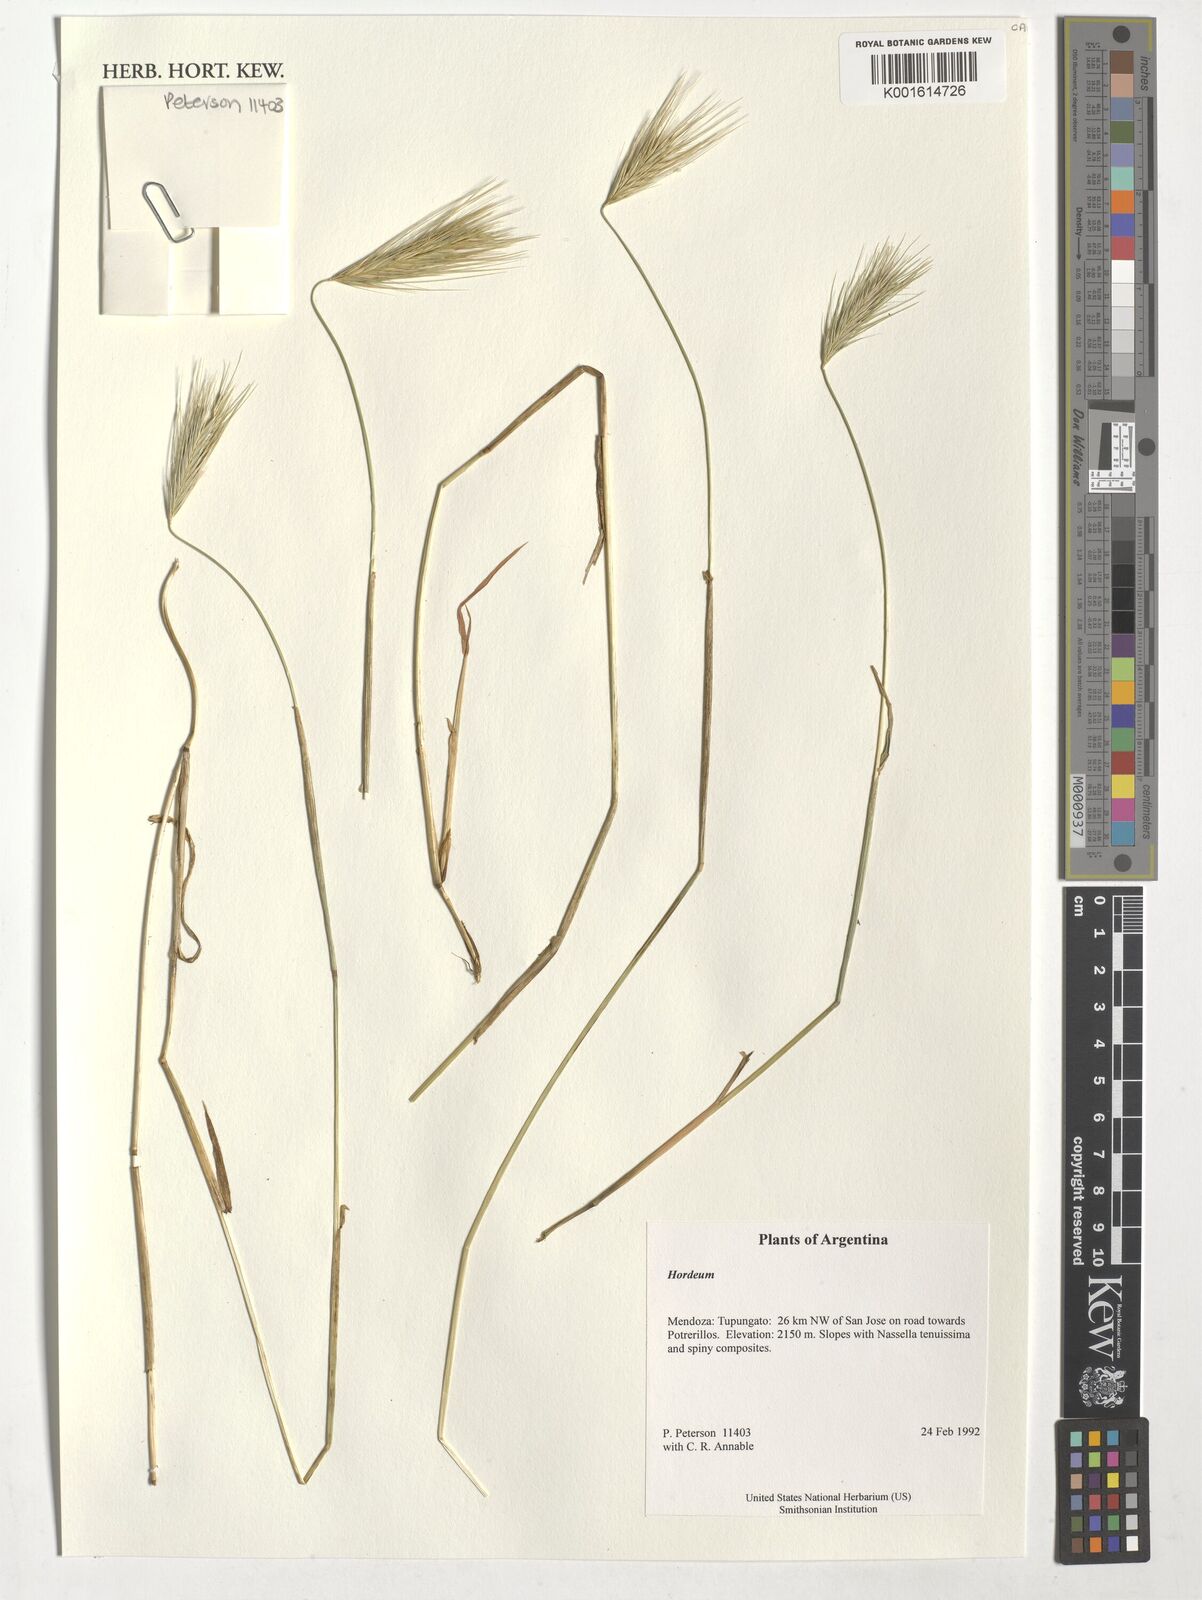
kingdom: Plantae
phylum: Tracheophyta
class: Liliopsida
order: Poales
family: Poaceae
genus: Hordeum
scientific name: Hordeum
